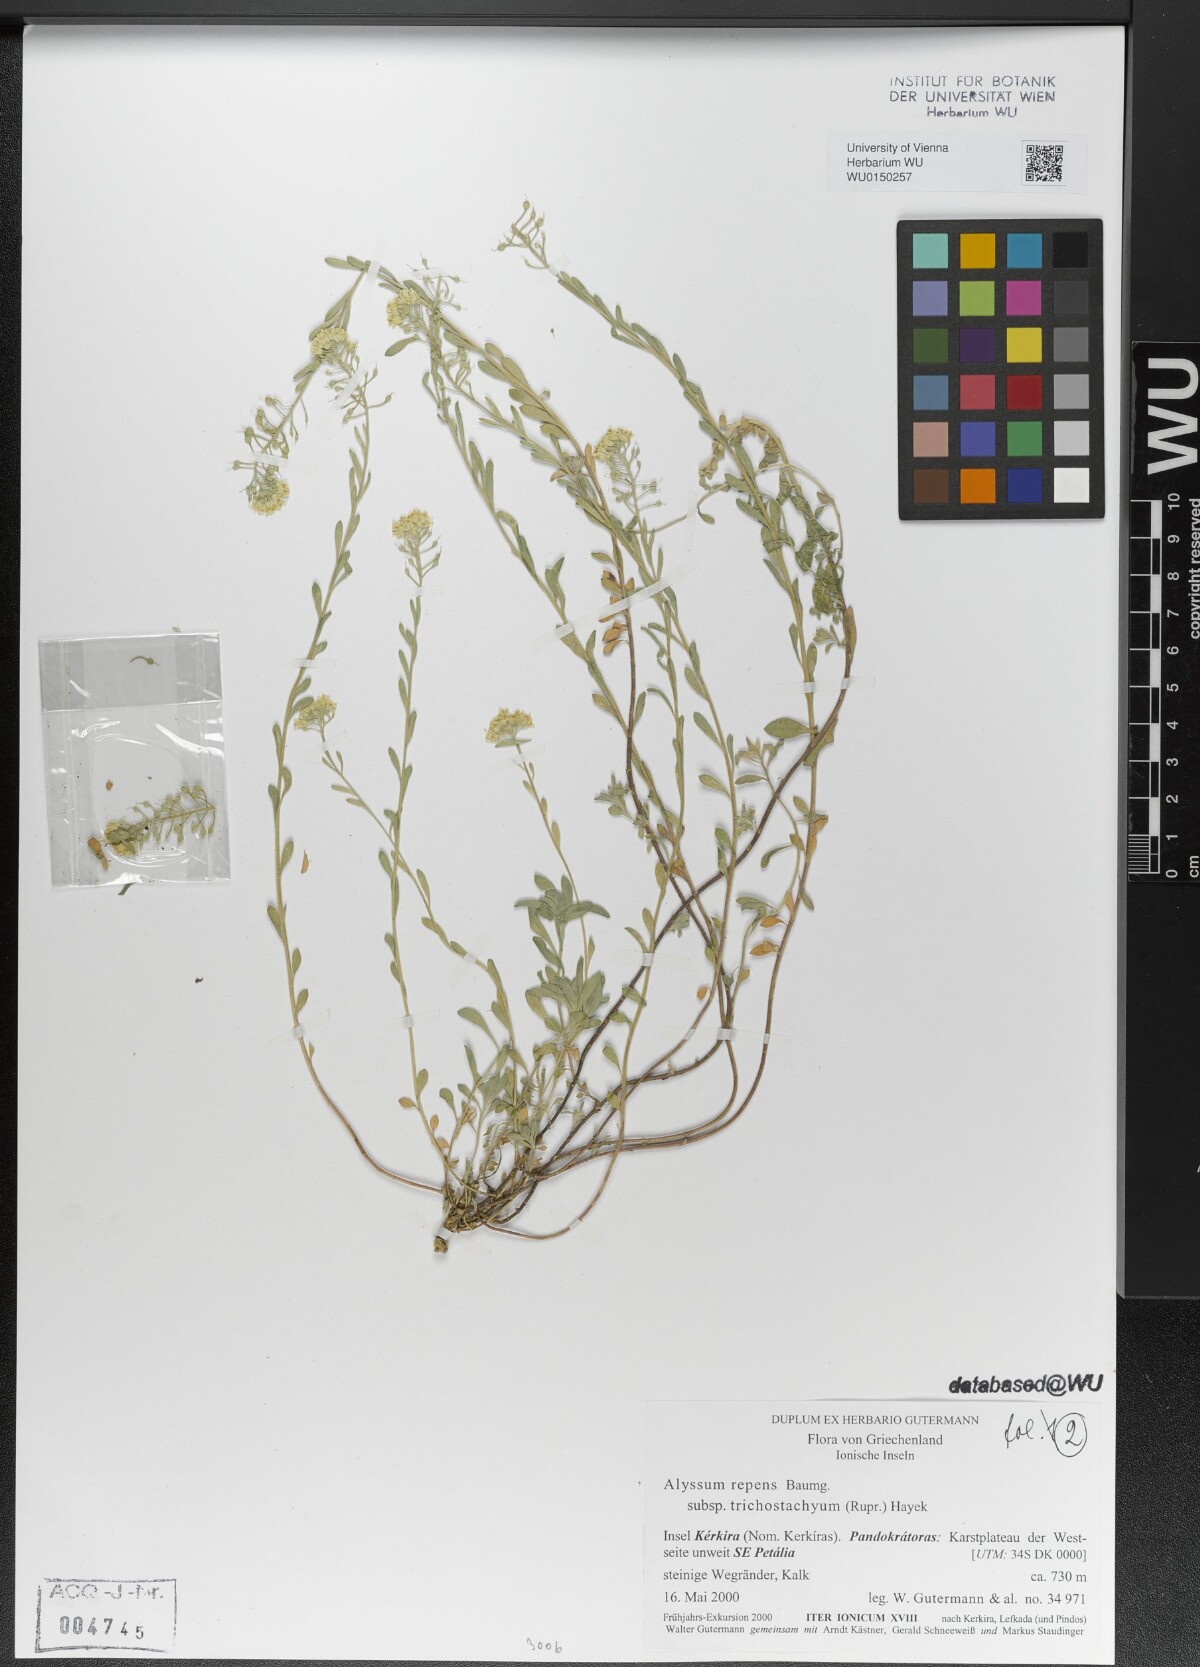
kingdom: Plantae
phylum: Tracheophyta
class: Magnoliopsida
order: Brassicales
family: Brassicaceae
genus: Alyssum
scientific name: Alyssum trichostachyum
